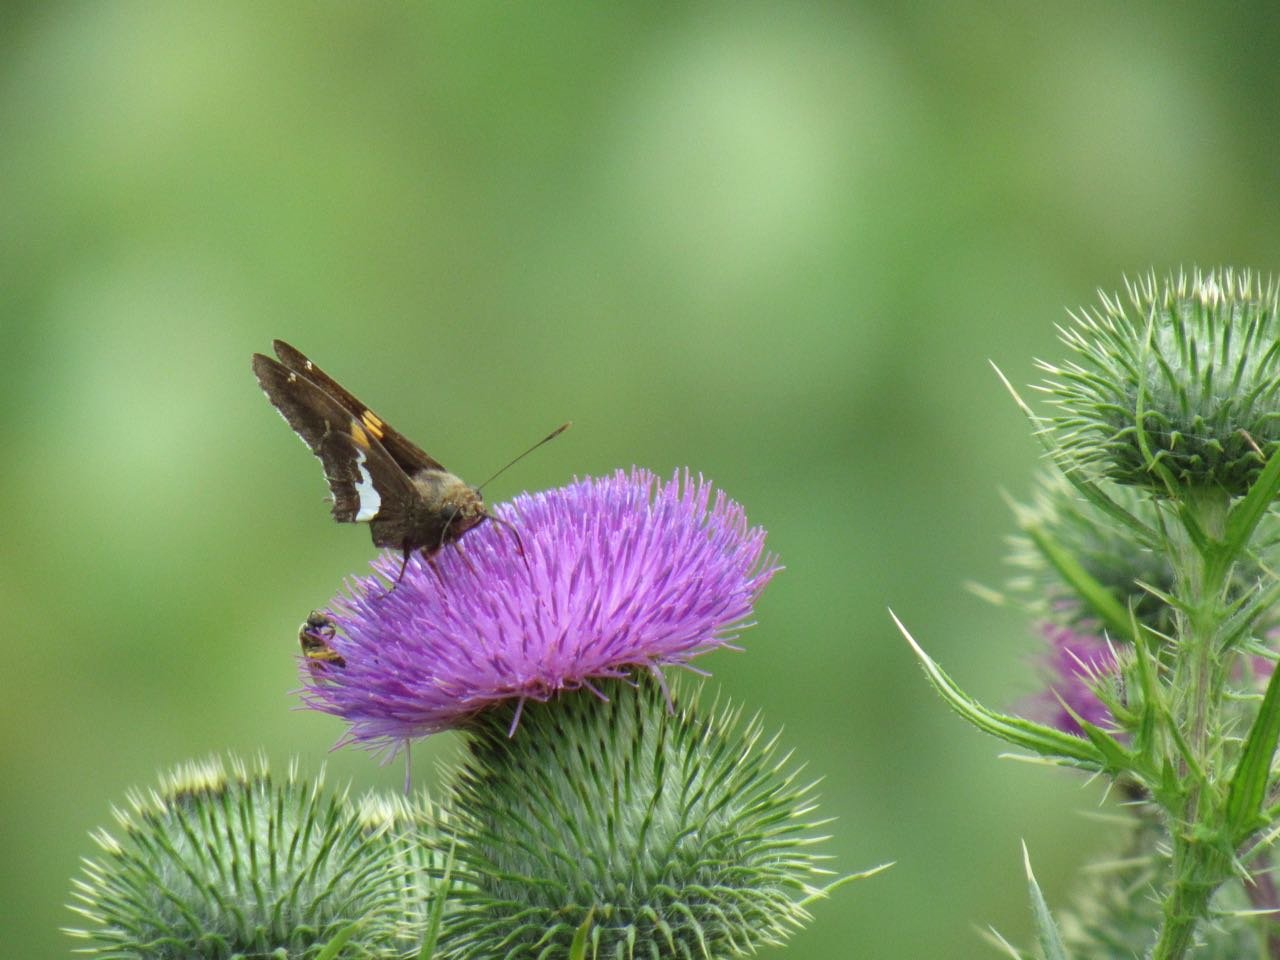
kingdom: Animalia
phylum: Arthropoda
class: Insecta
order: Lepidoptera
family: Hesperiidae
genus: Epargyreus
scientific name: Epargyreus clarus
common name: Silver-spotted Skipper
